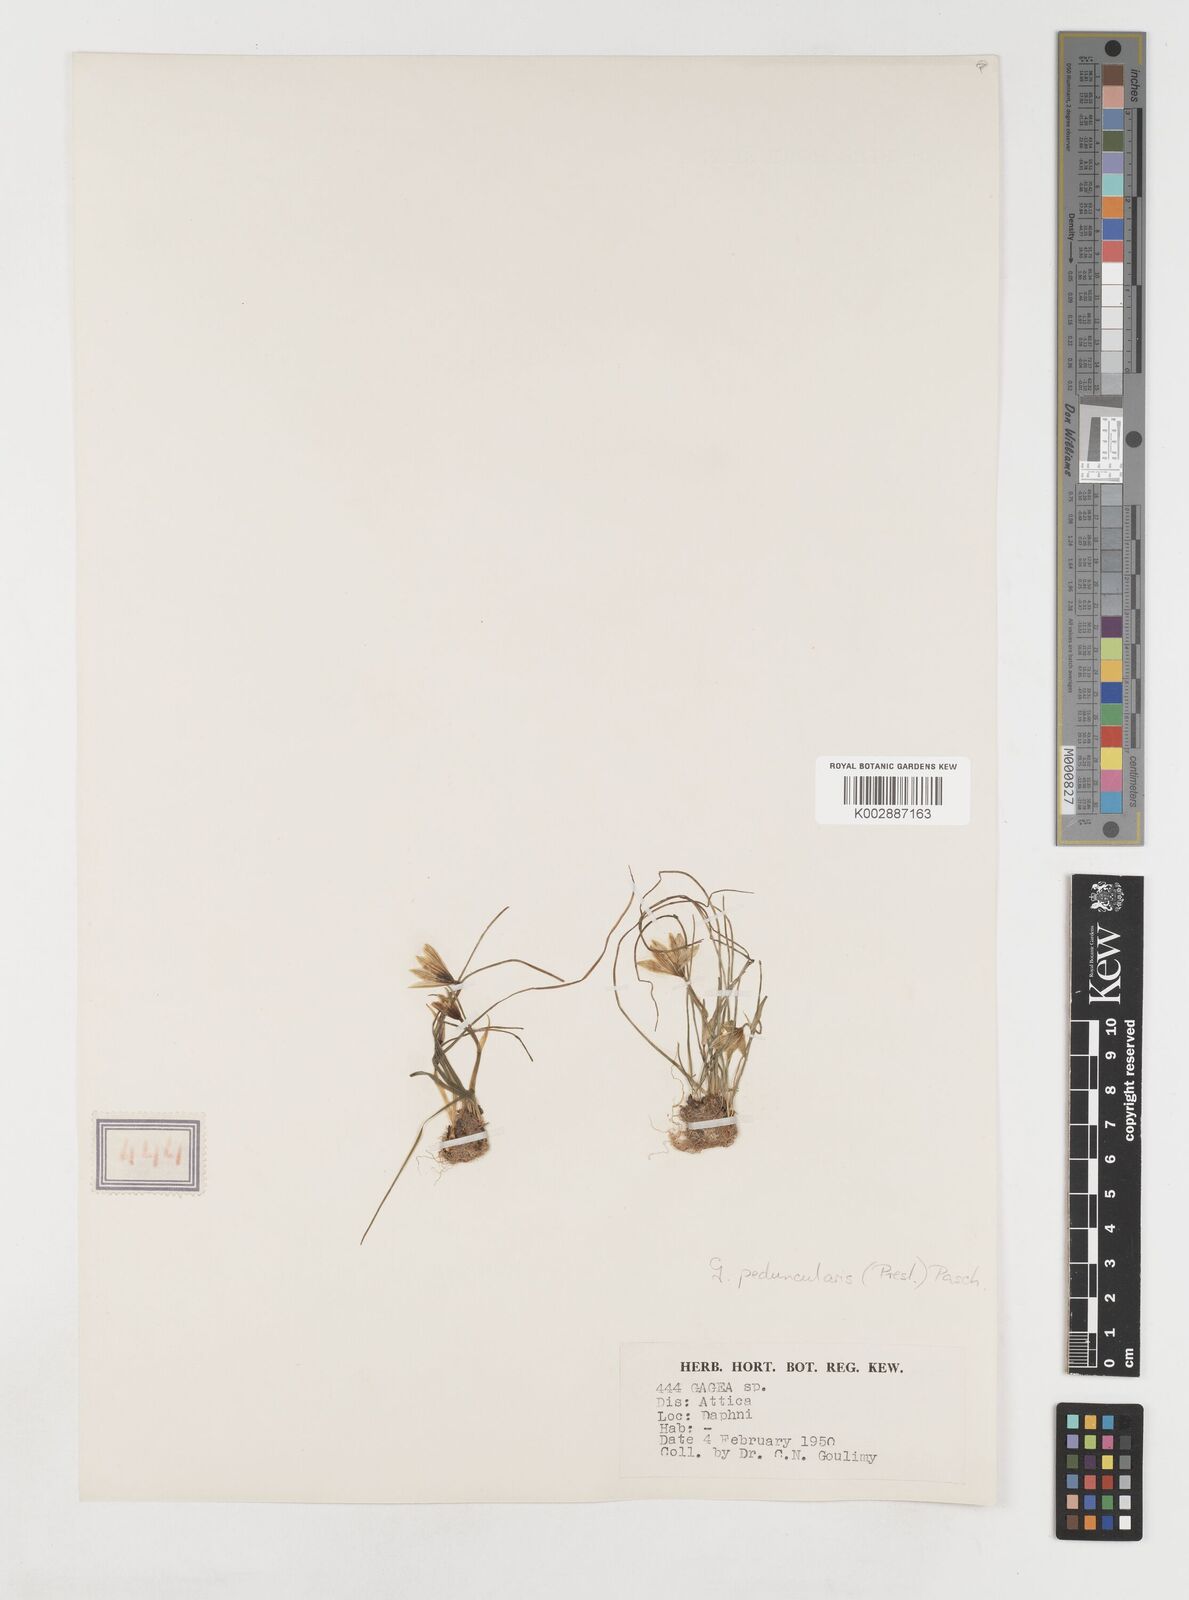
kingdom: Plantae
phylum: Tracheophyta
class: Liliopsida
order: Liliales
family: Liliaceae
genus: Gagea
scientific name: Gagea peduncularis
